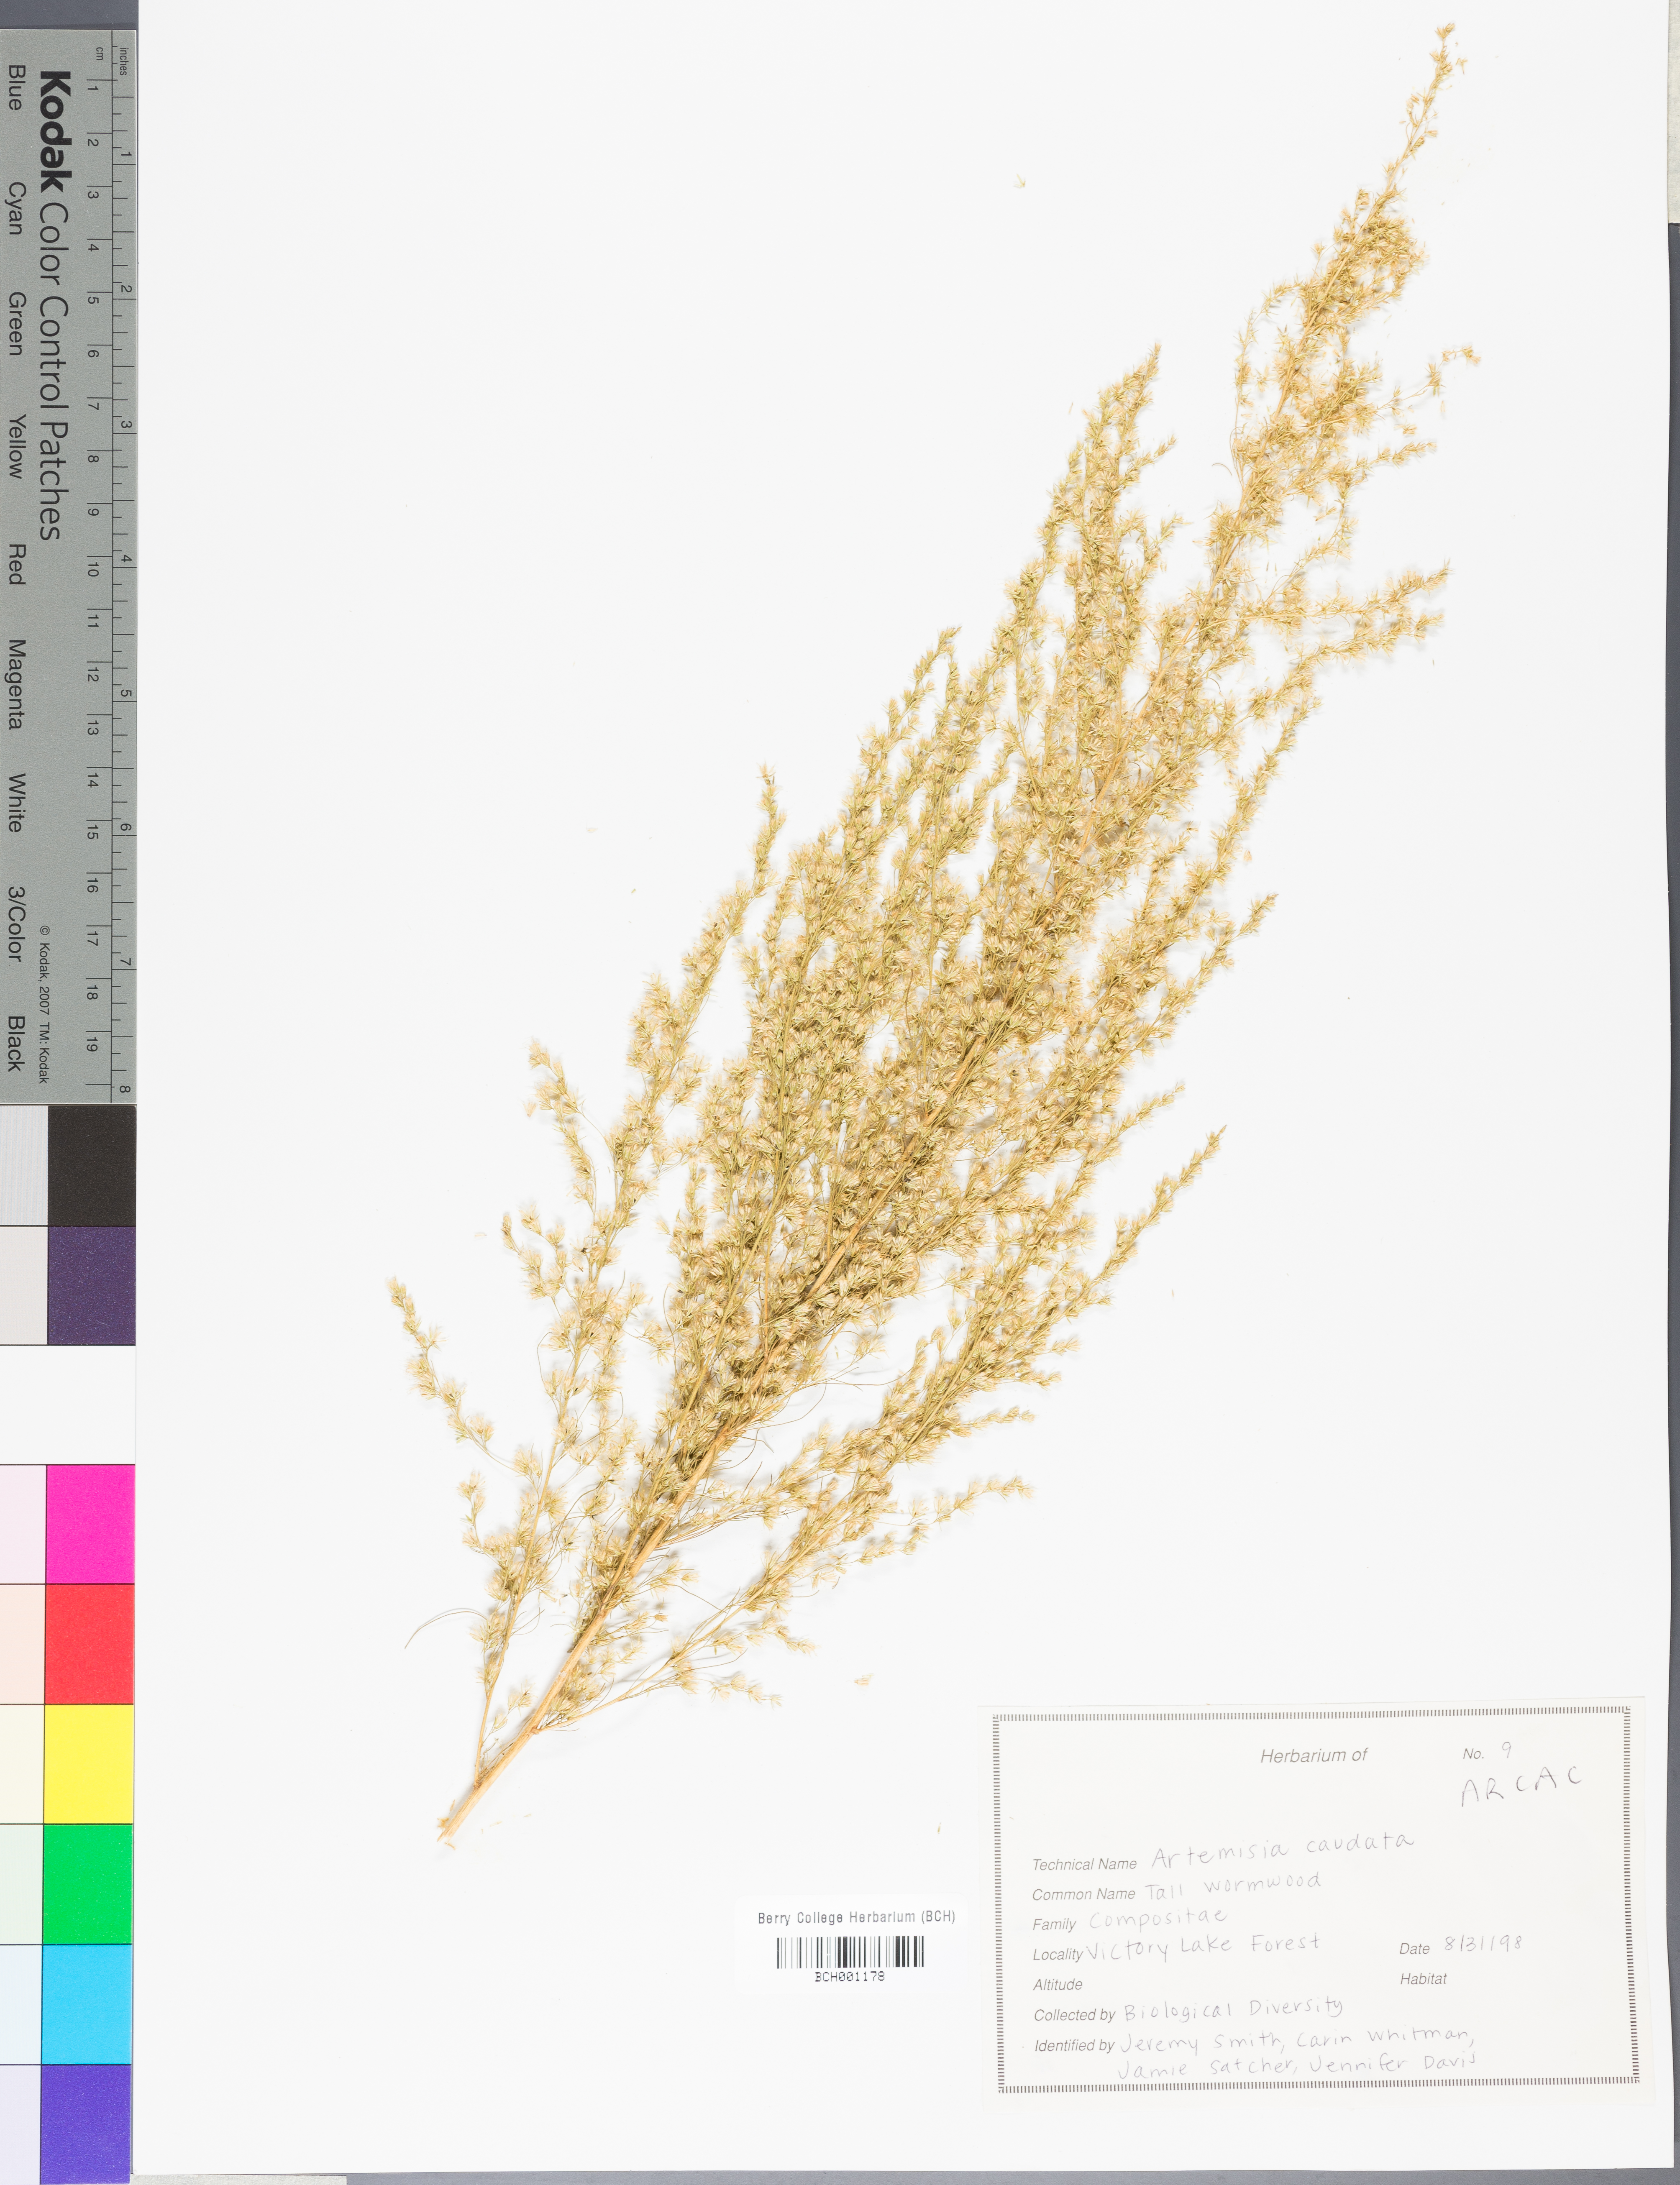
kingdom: Plantae
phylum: Tracheophyta
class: Magnoliopsida
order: Asterales
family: Asteraceae
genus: Artemisia
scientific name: Artemisia campestris
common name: Field wormwood
